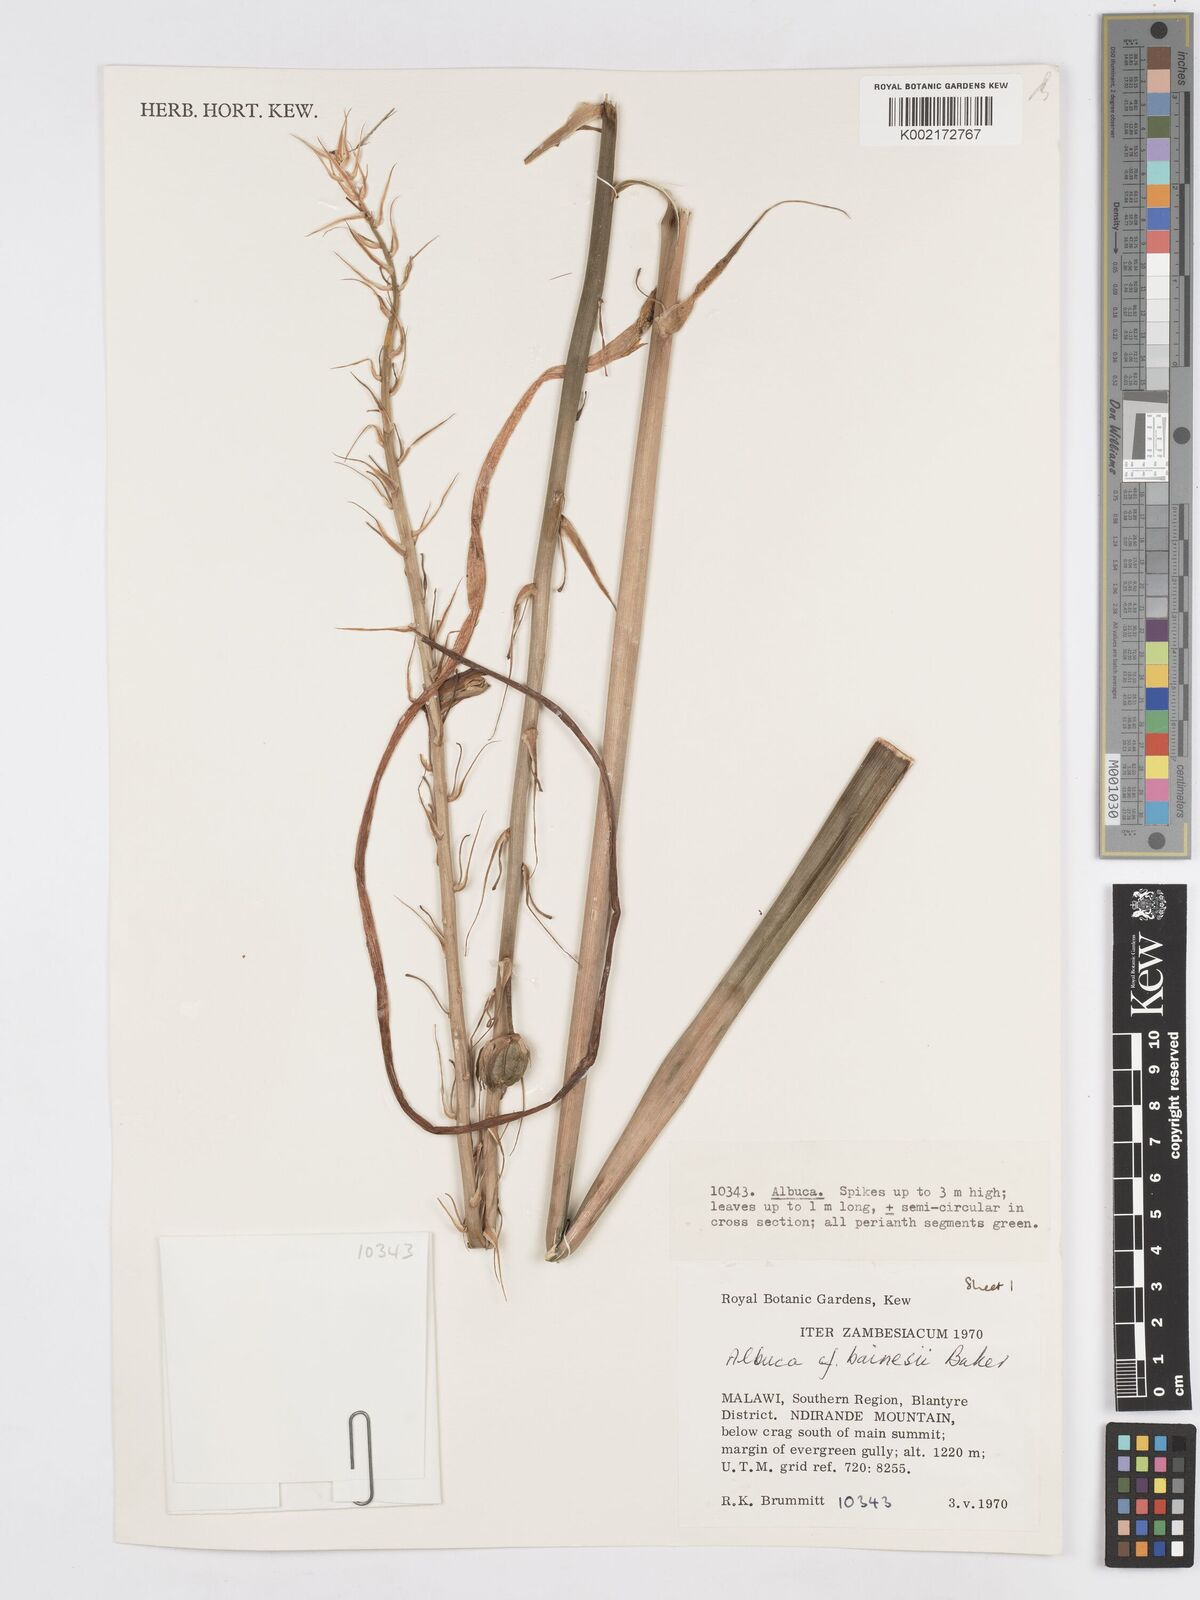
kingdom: Plantae
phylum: Tracheophyta
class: Liliopsida
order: Asparagales
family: Asparagaceae
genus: Albuca
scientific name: Albuca abyssinica
